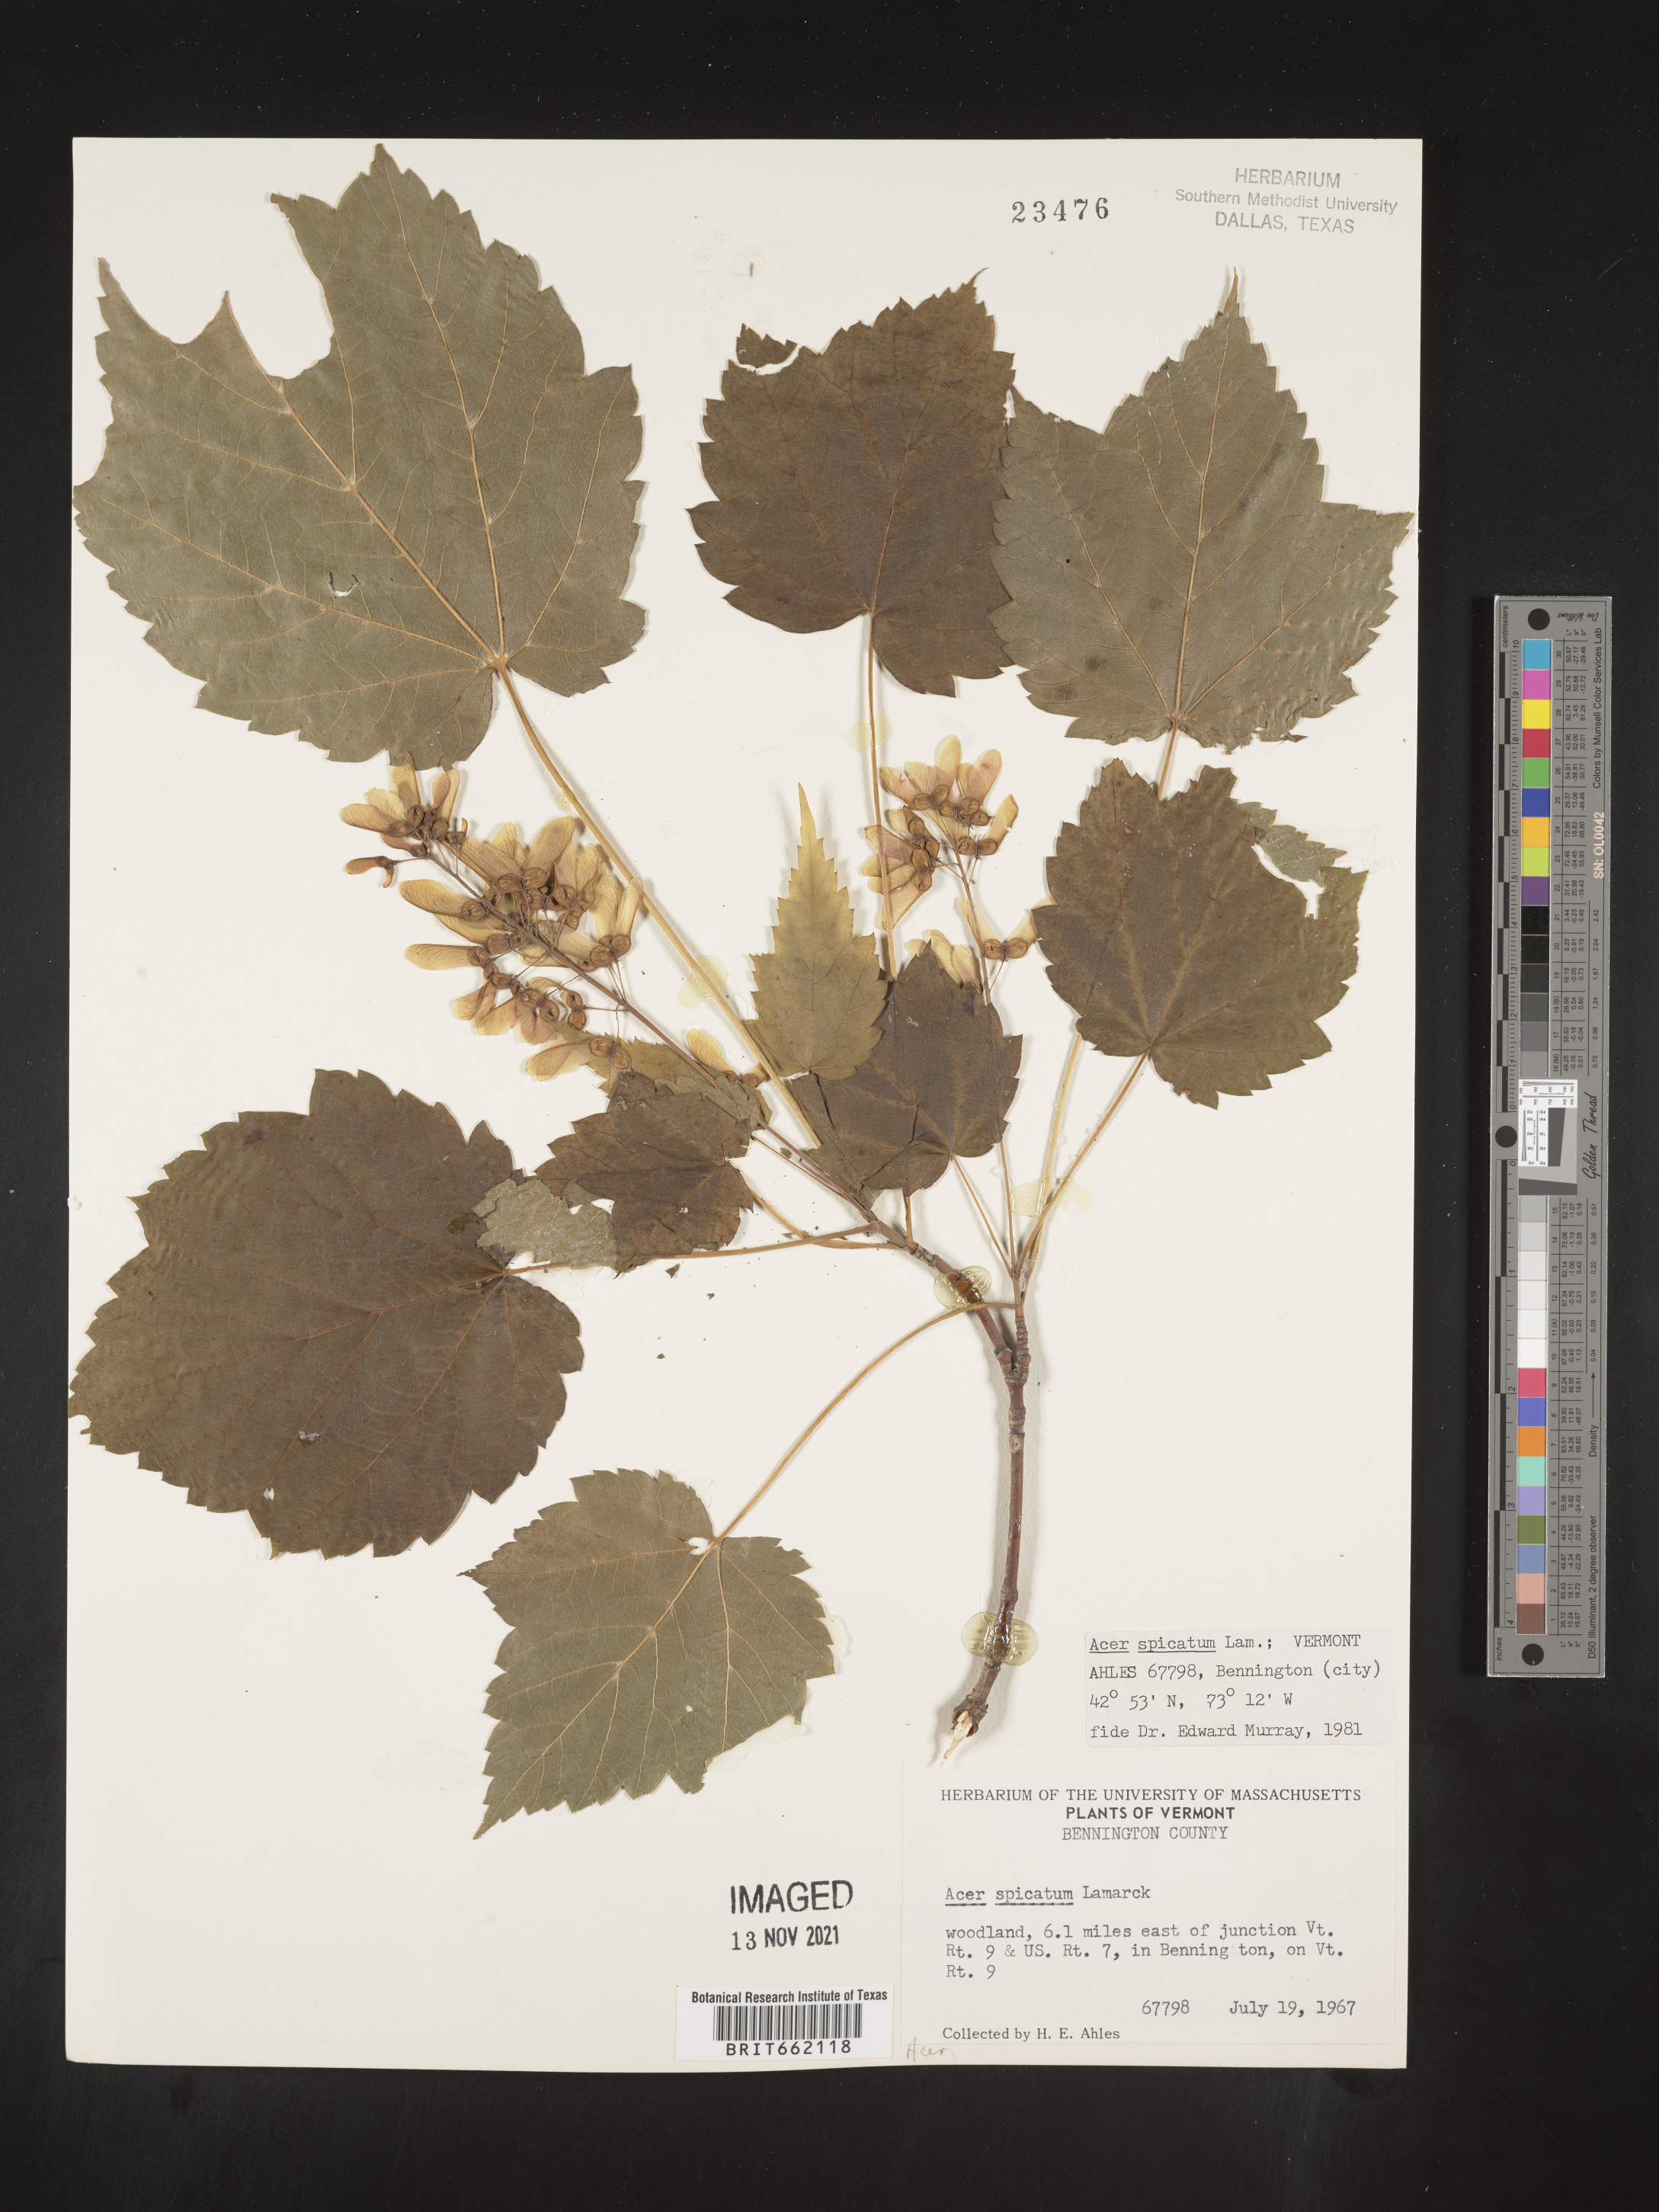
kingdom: Plantae
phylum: Tracheophyta
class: Magnoliopsida
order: Sapindales
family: Sapindaceae
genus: Acer
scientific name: Acer spicatum
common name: Mountain maple
